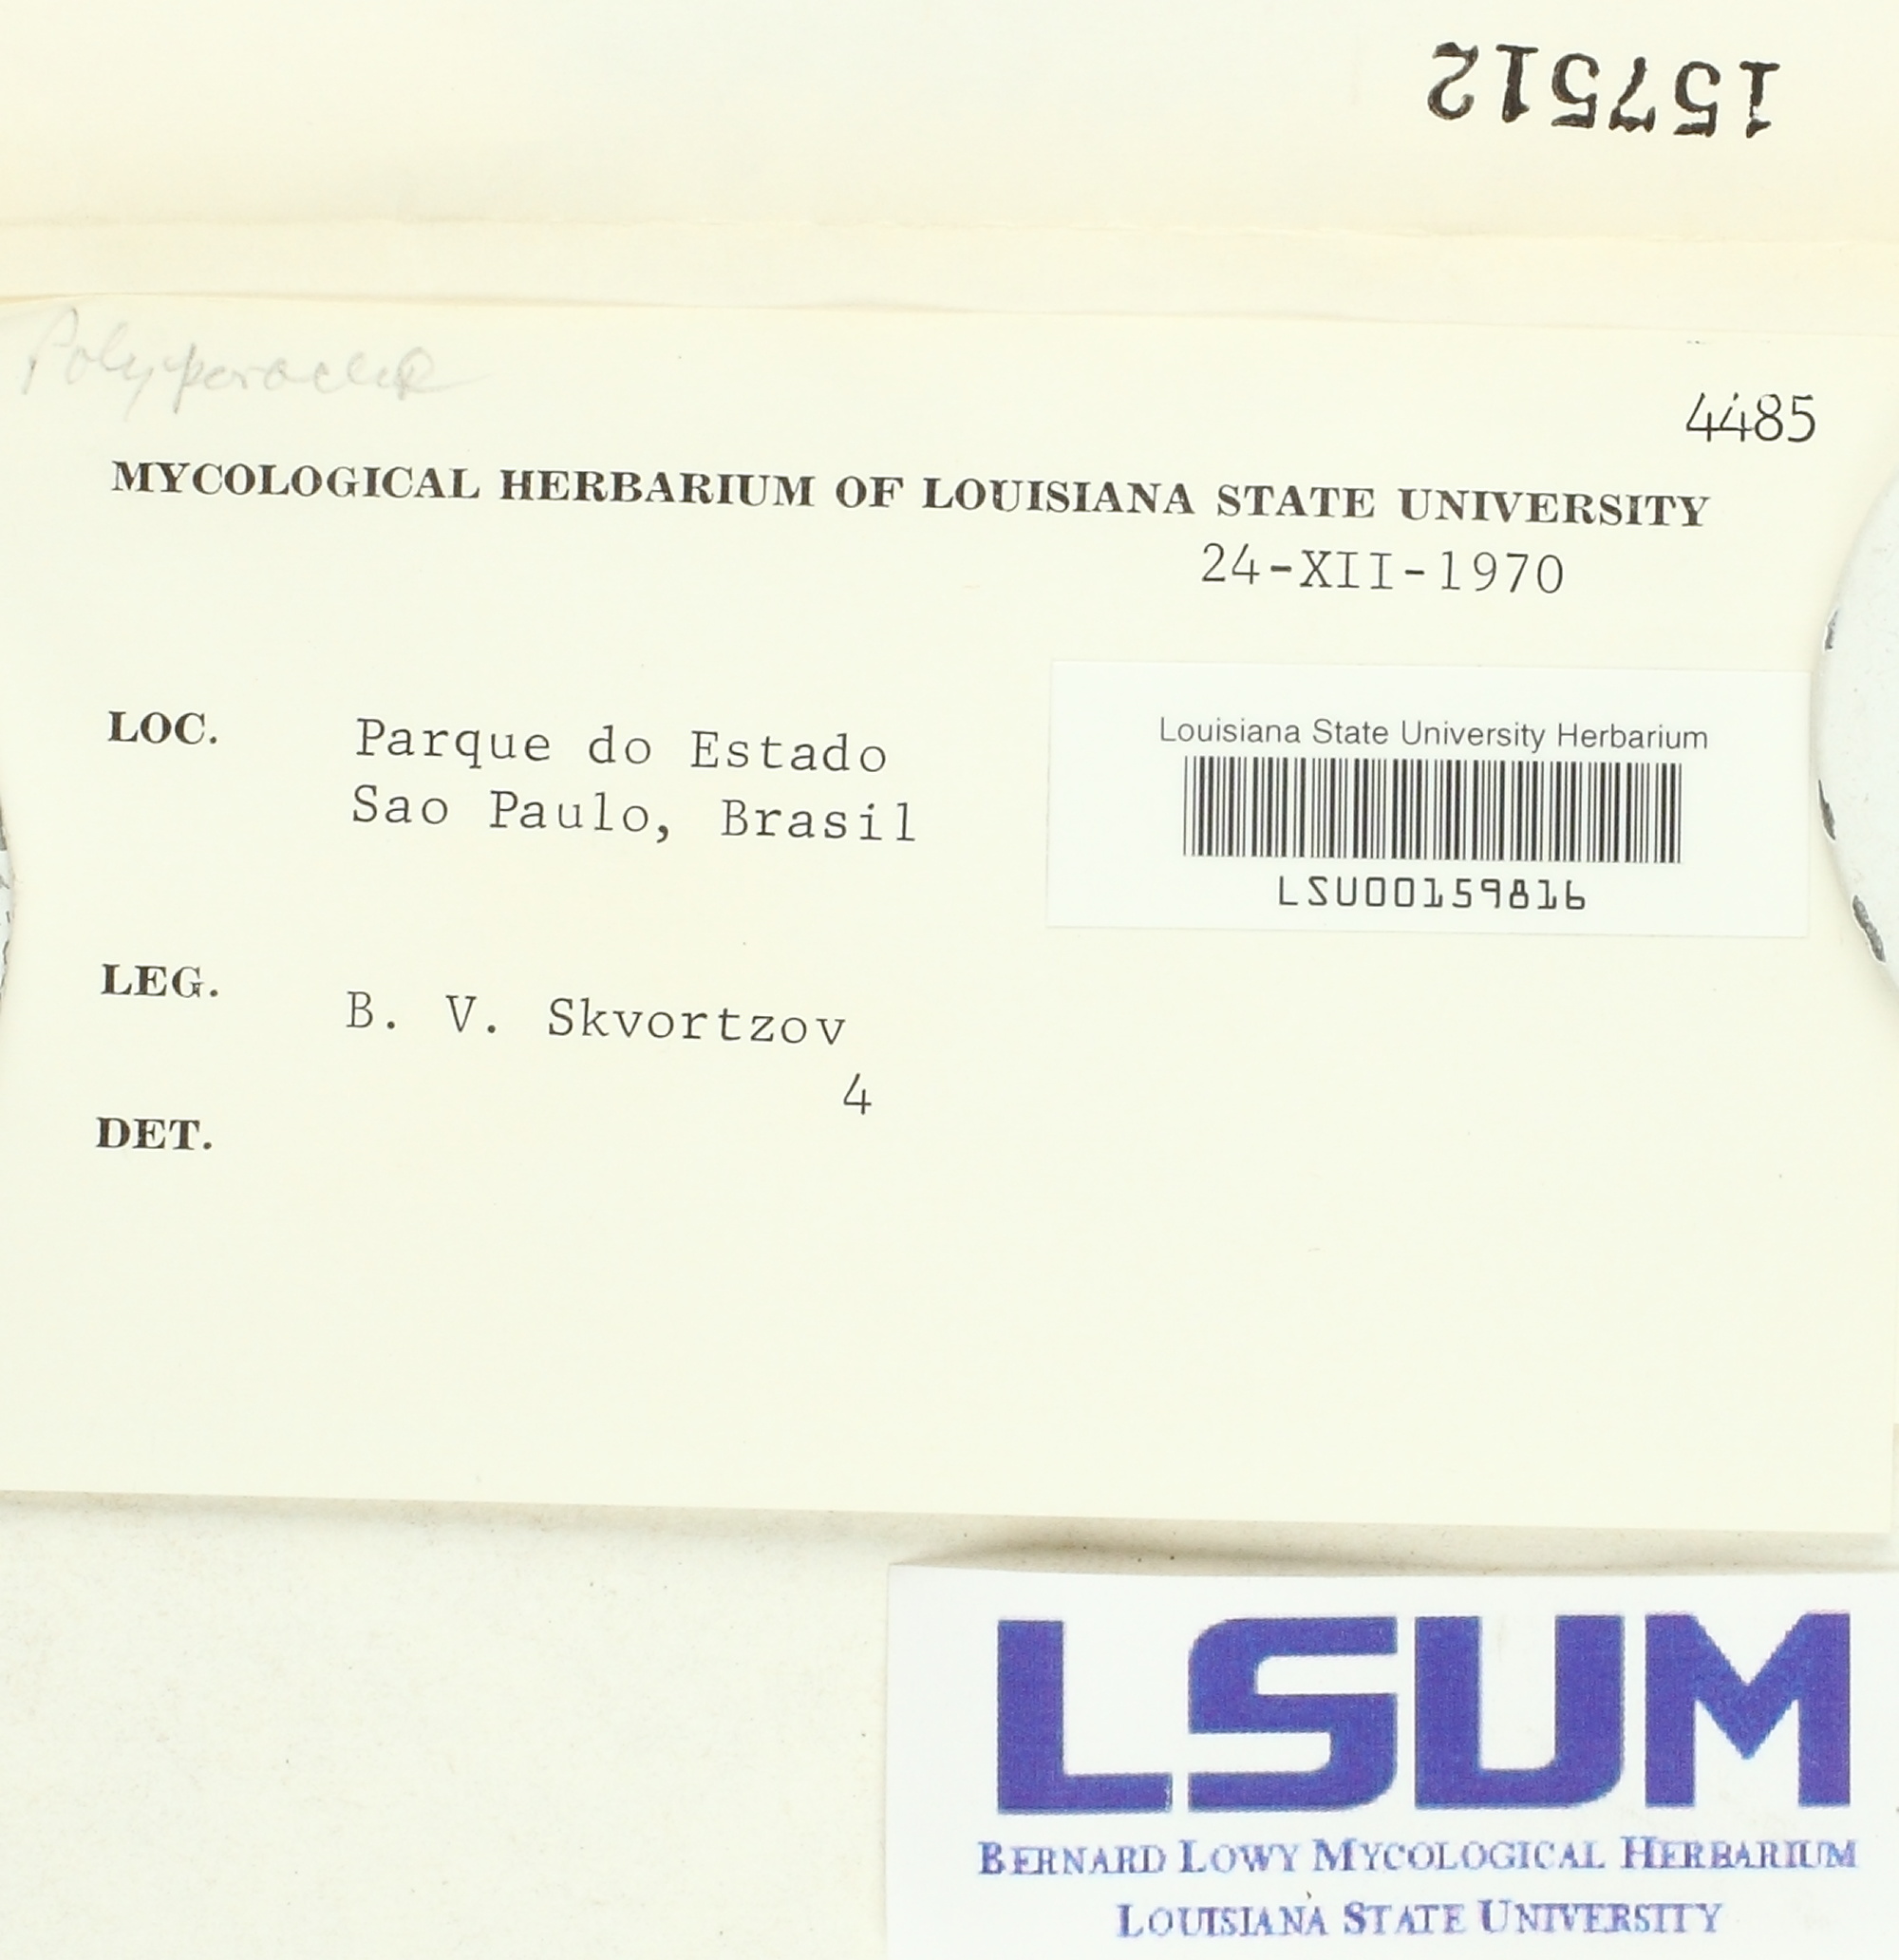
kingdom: Fungi
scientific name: Fungi
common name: Fungi
